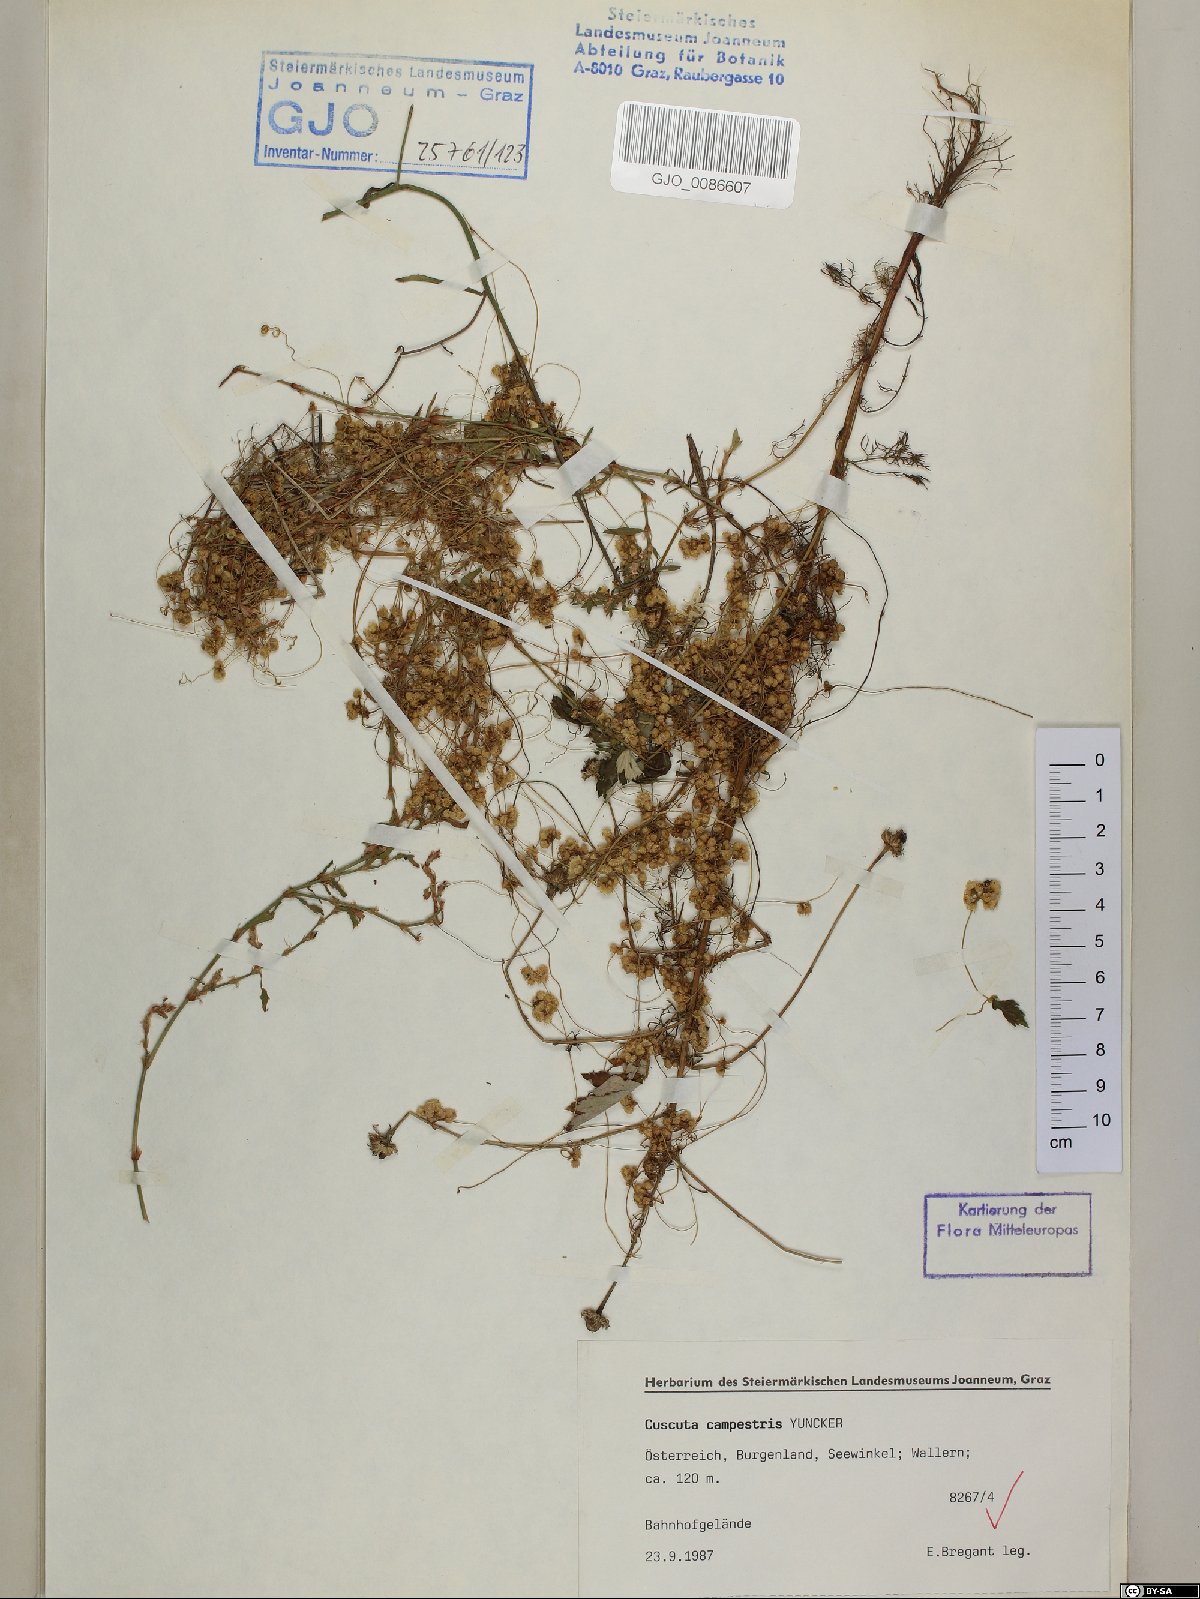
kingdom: Plantae
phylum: Tracheophyta
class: Magnoliopsida
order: Solanales
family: Convolvulaceae
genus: Cuscuta
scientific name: Cuscuta campestris
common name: Yellow dodder
